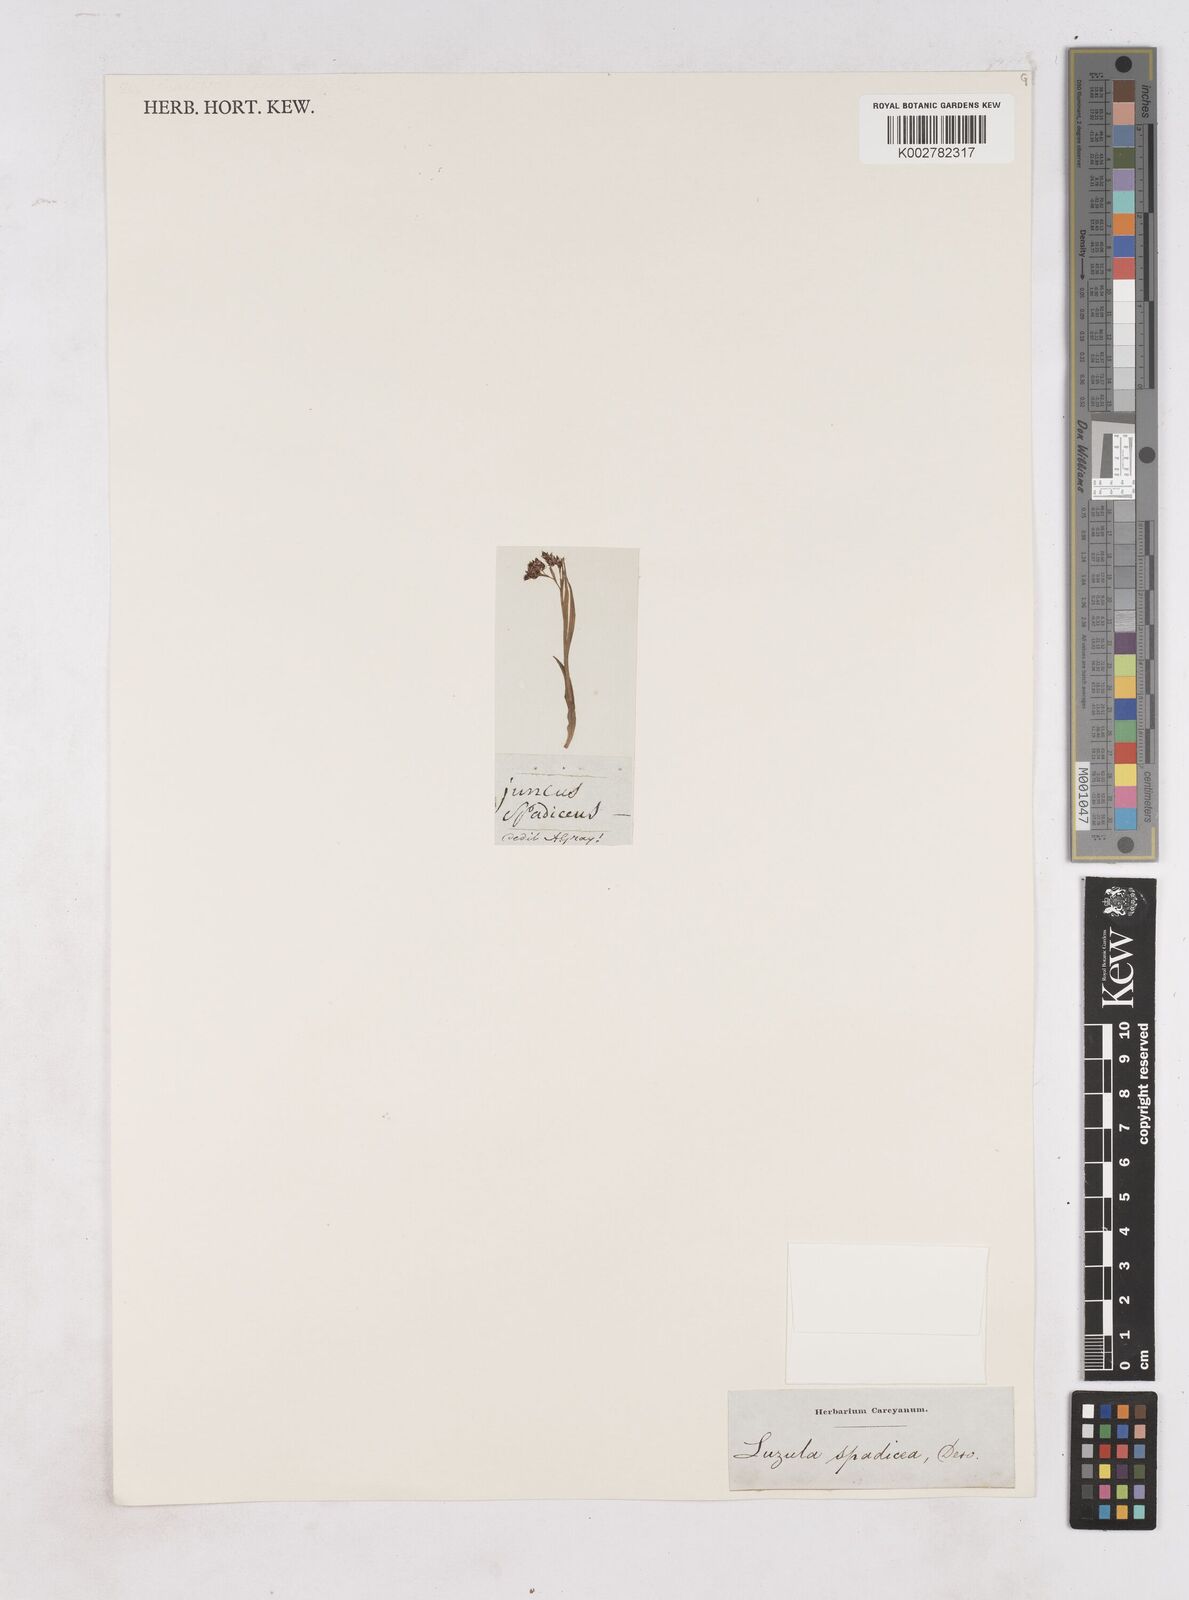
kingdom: Plantae
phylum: Tracheophyta
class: Liliopsida
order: Poales
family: Juncaceae
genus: Luzula
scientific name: Luzula alpinopilosa
